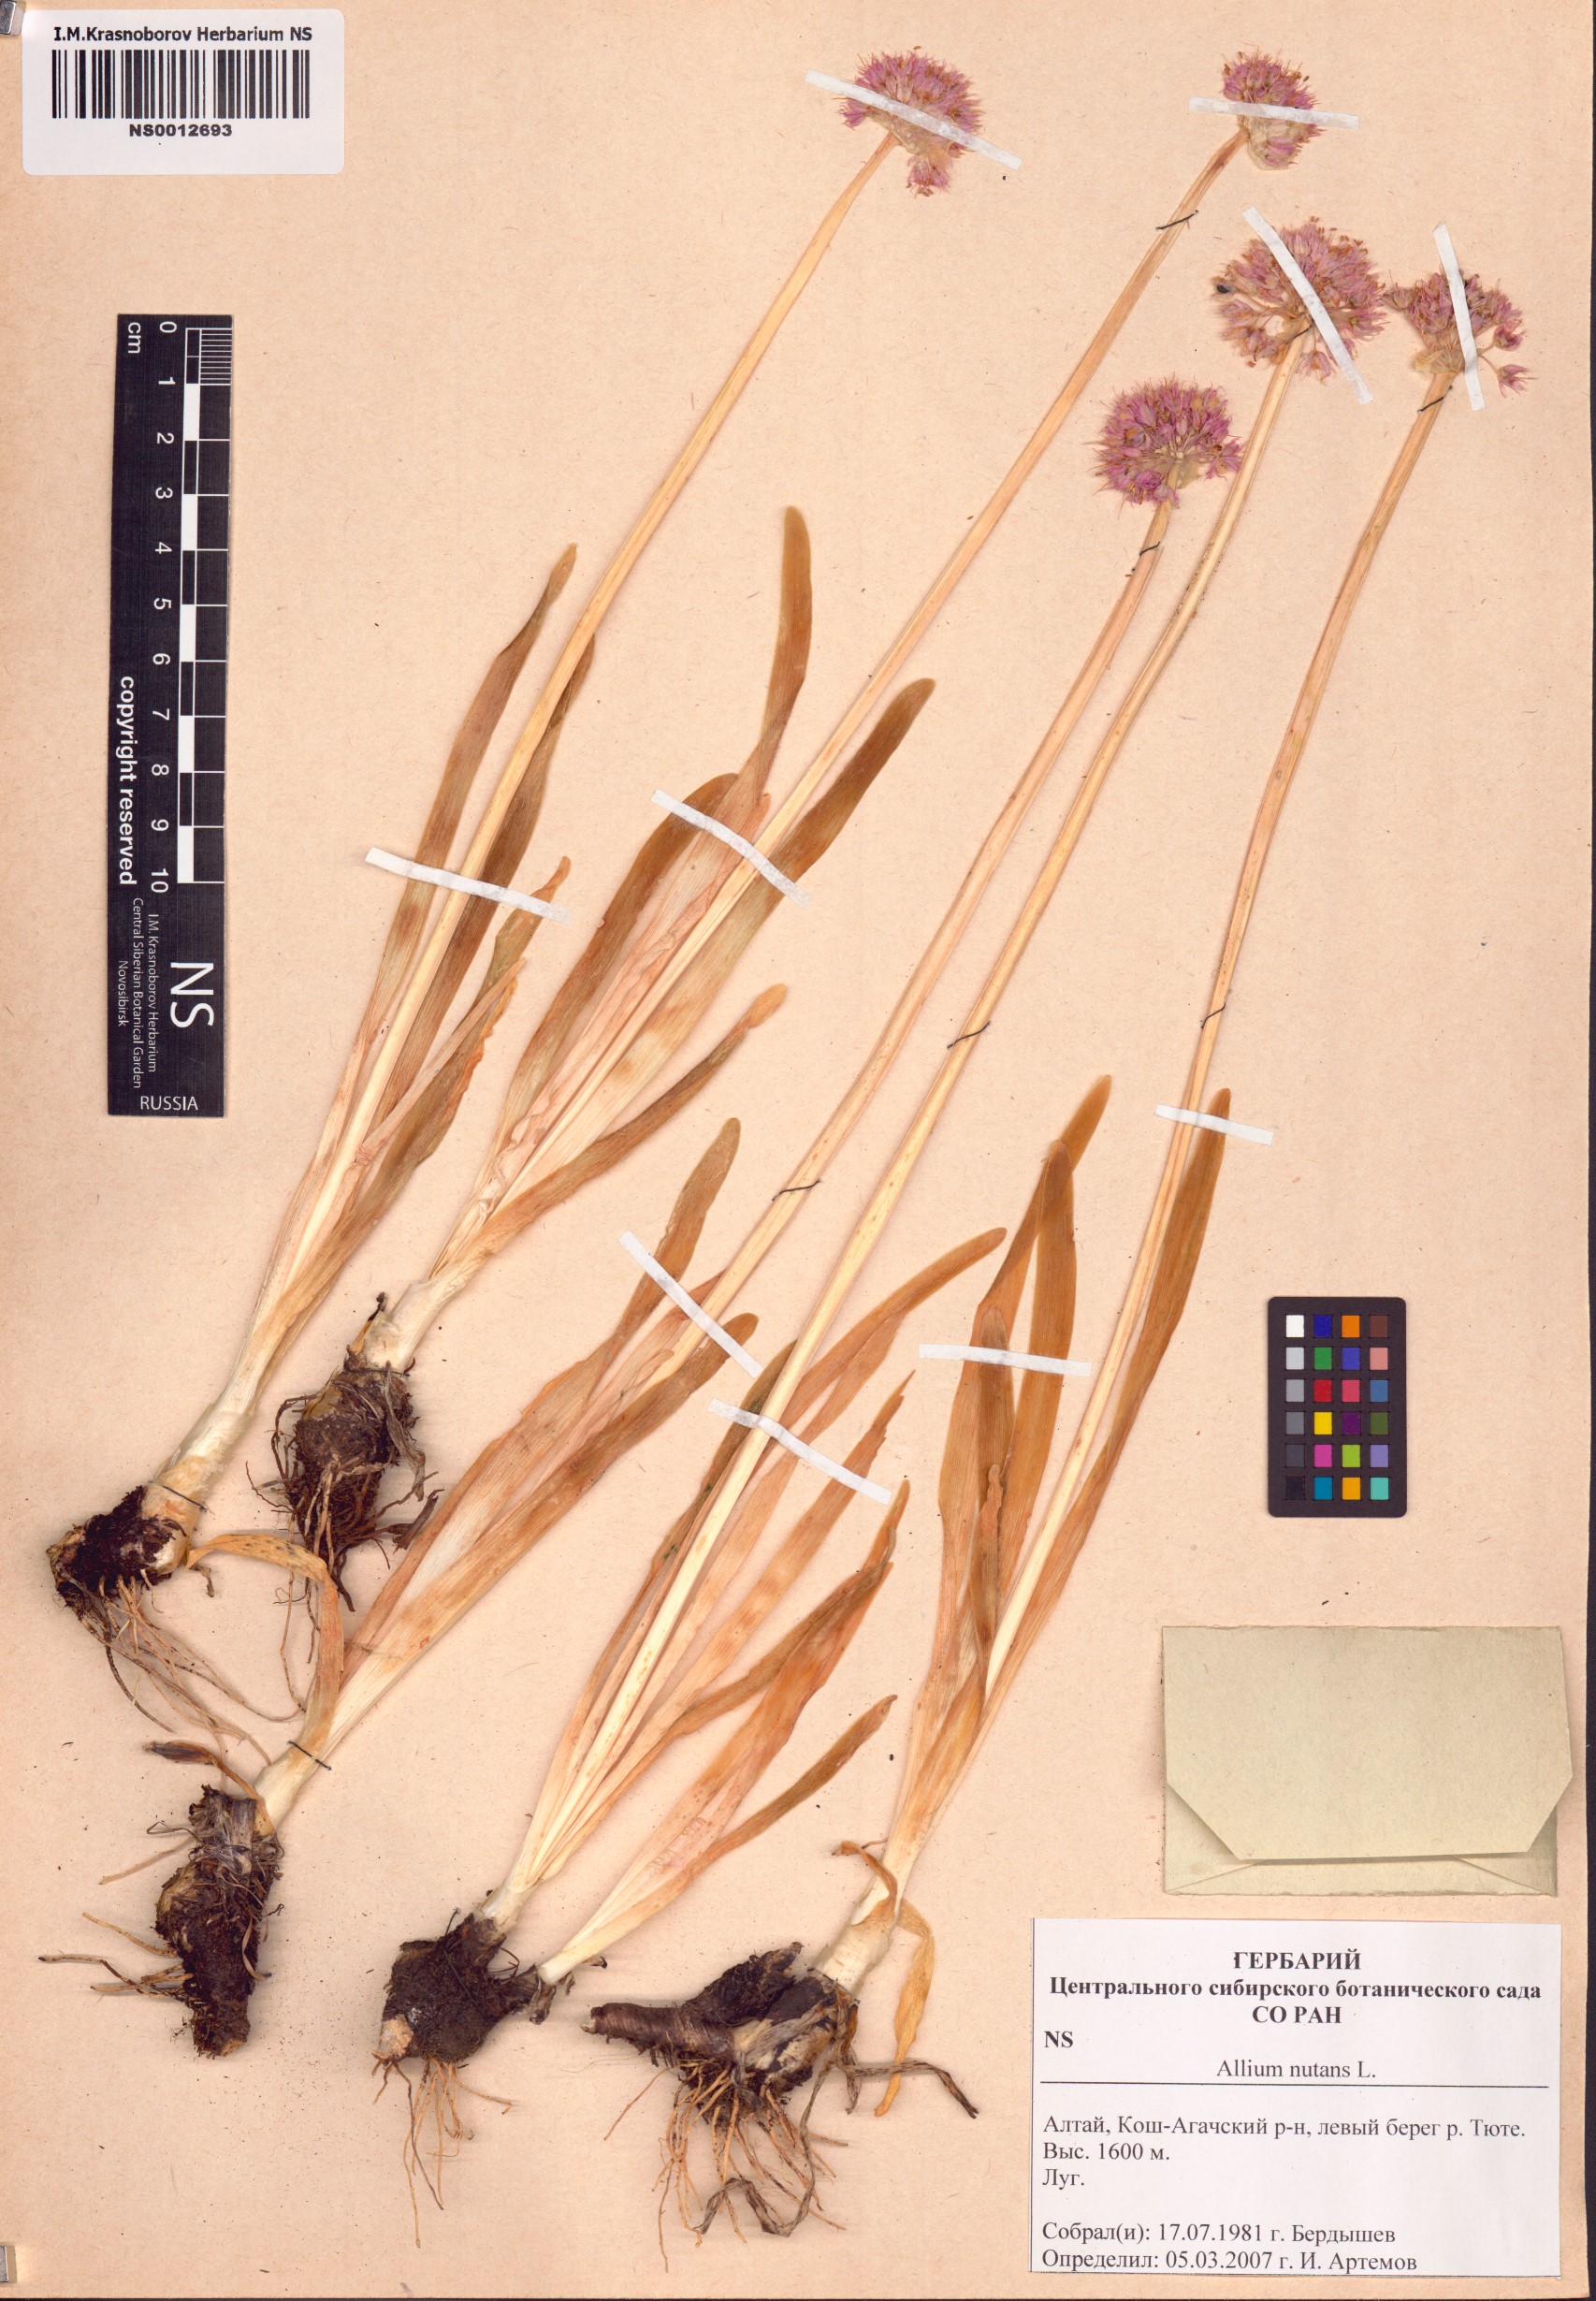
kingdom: Plantae
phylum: Tracheophyta
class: Liliopsida
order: Asparagales
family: Amaryllidaceae
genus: Allium
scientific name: Allium nutans
